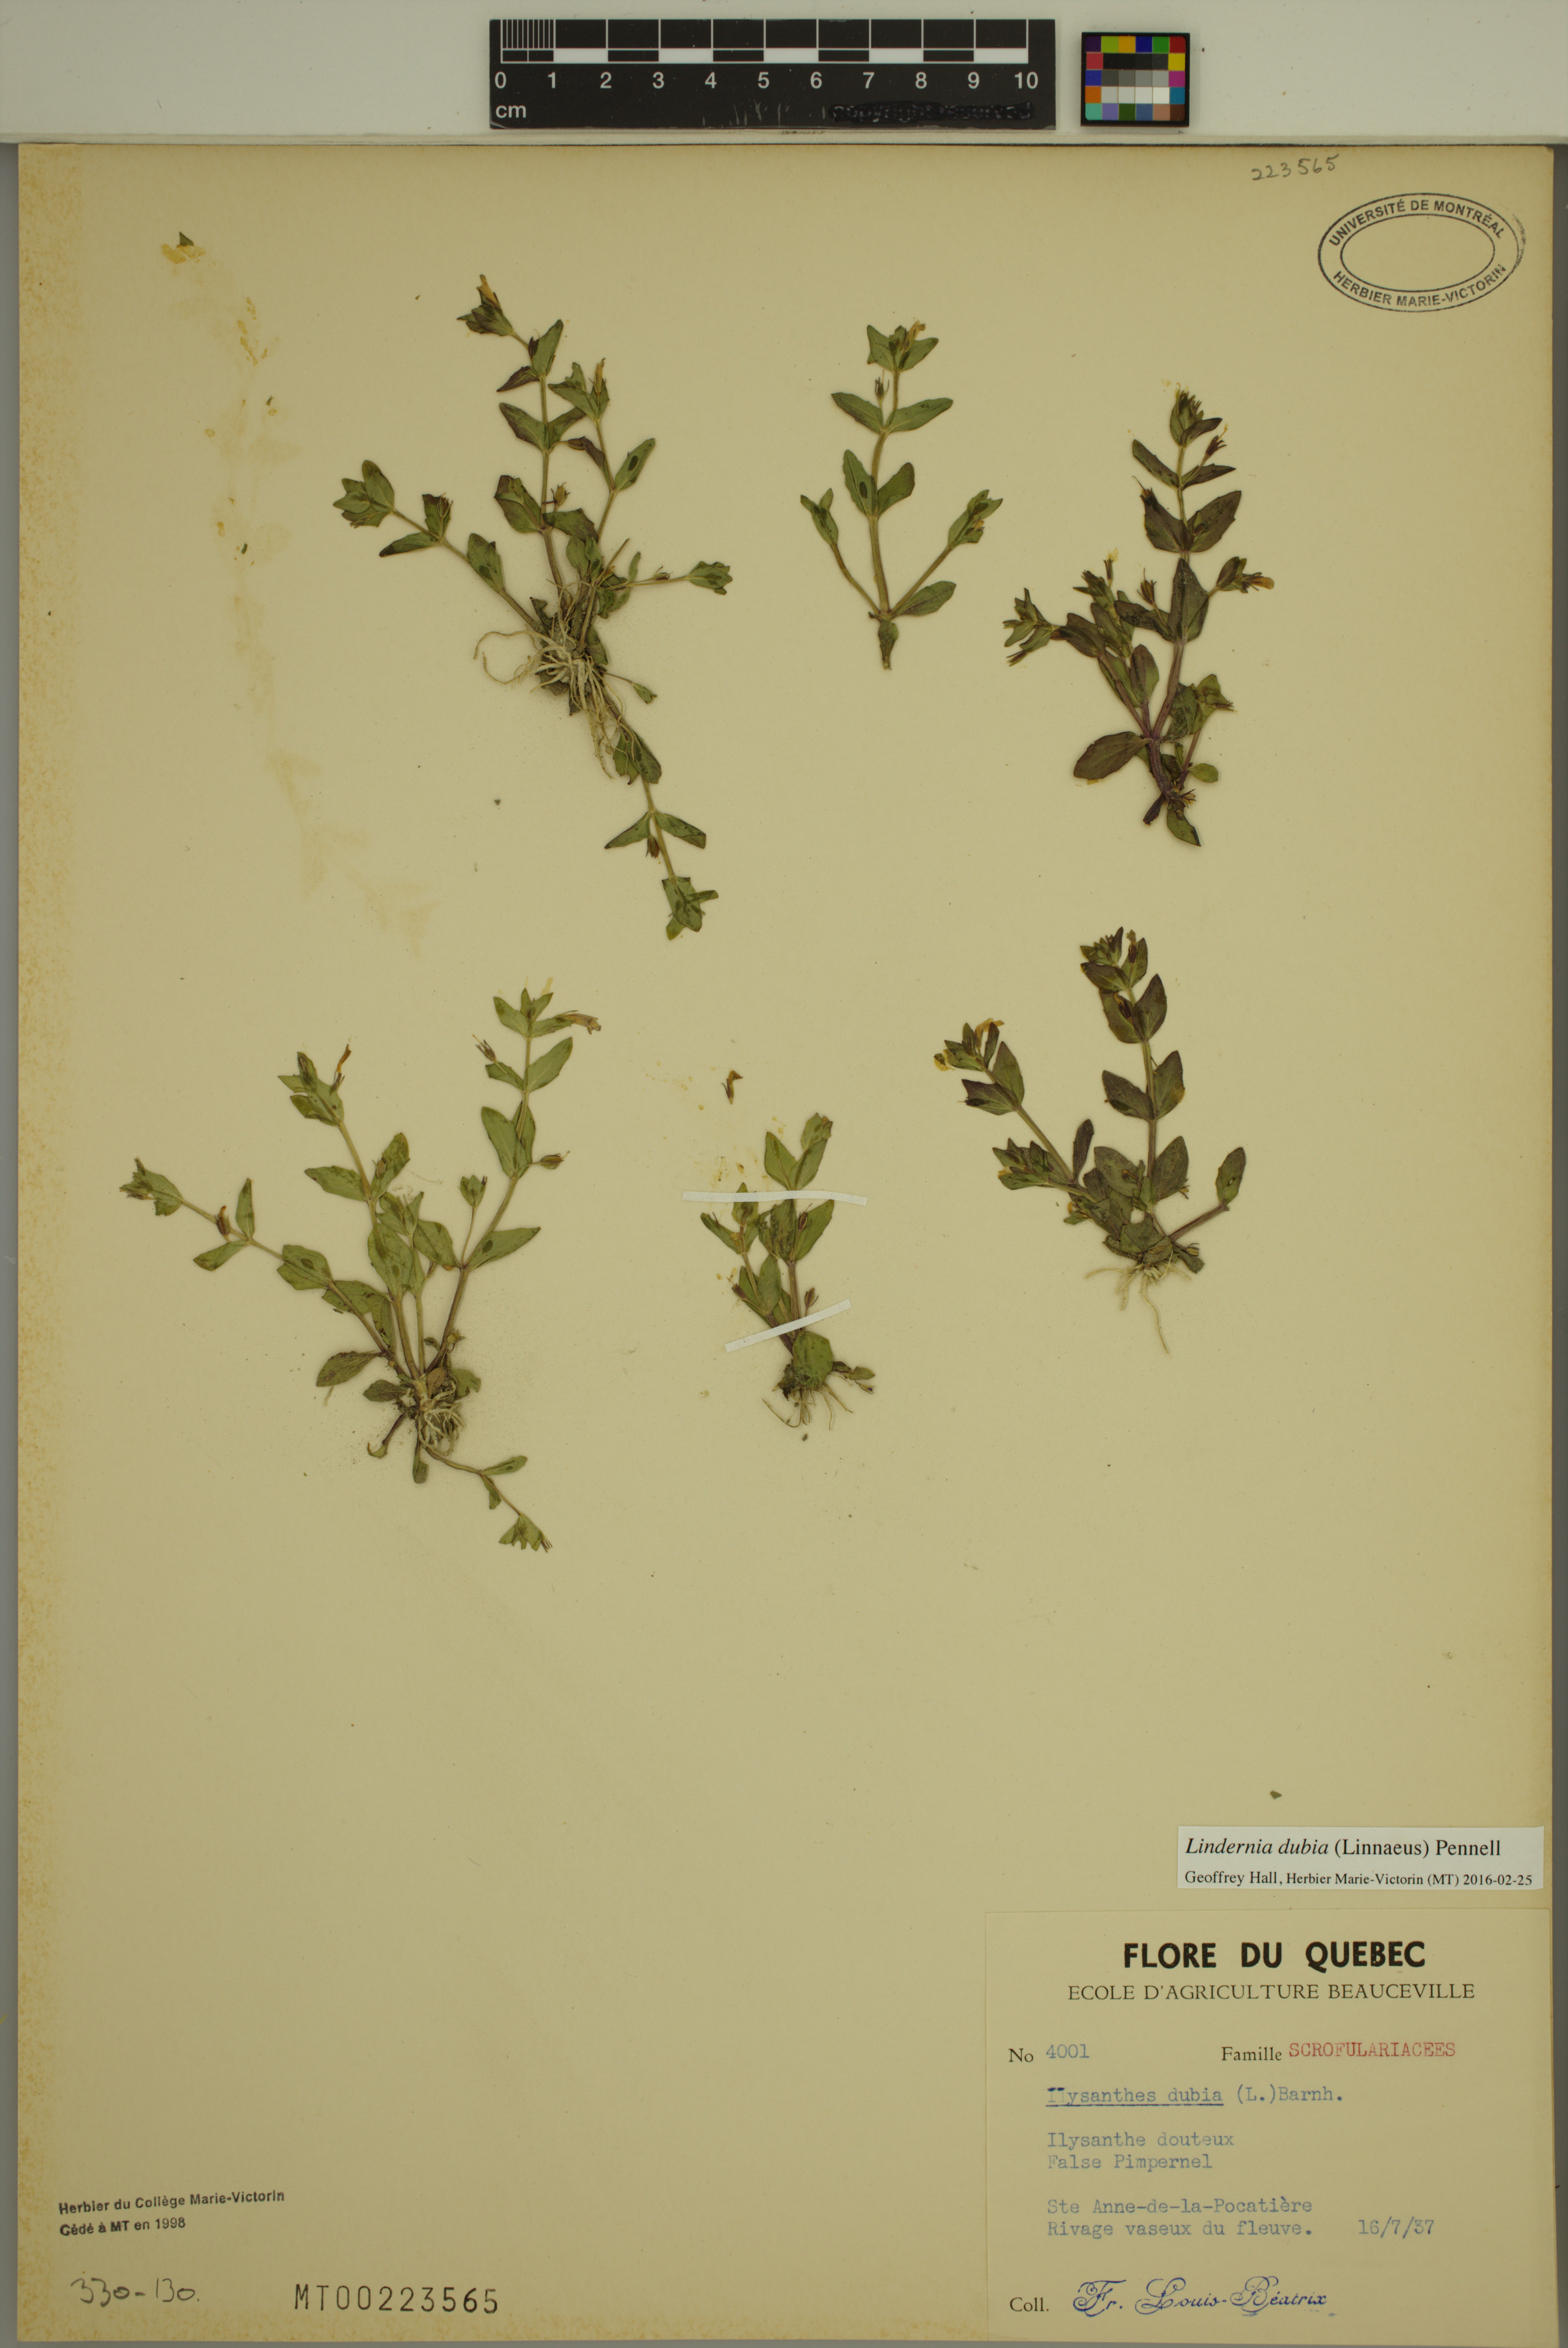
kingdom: Plantae
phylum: Tracheophyta
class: Magnoliopsida
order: Lamiales
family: Linderniaceae
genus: Lindernia
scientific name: Lindernia dubia
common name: Annual false pimpernel
